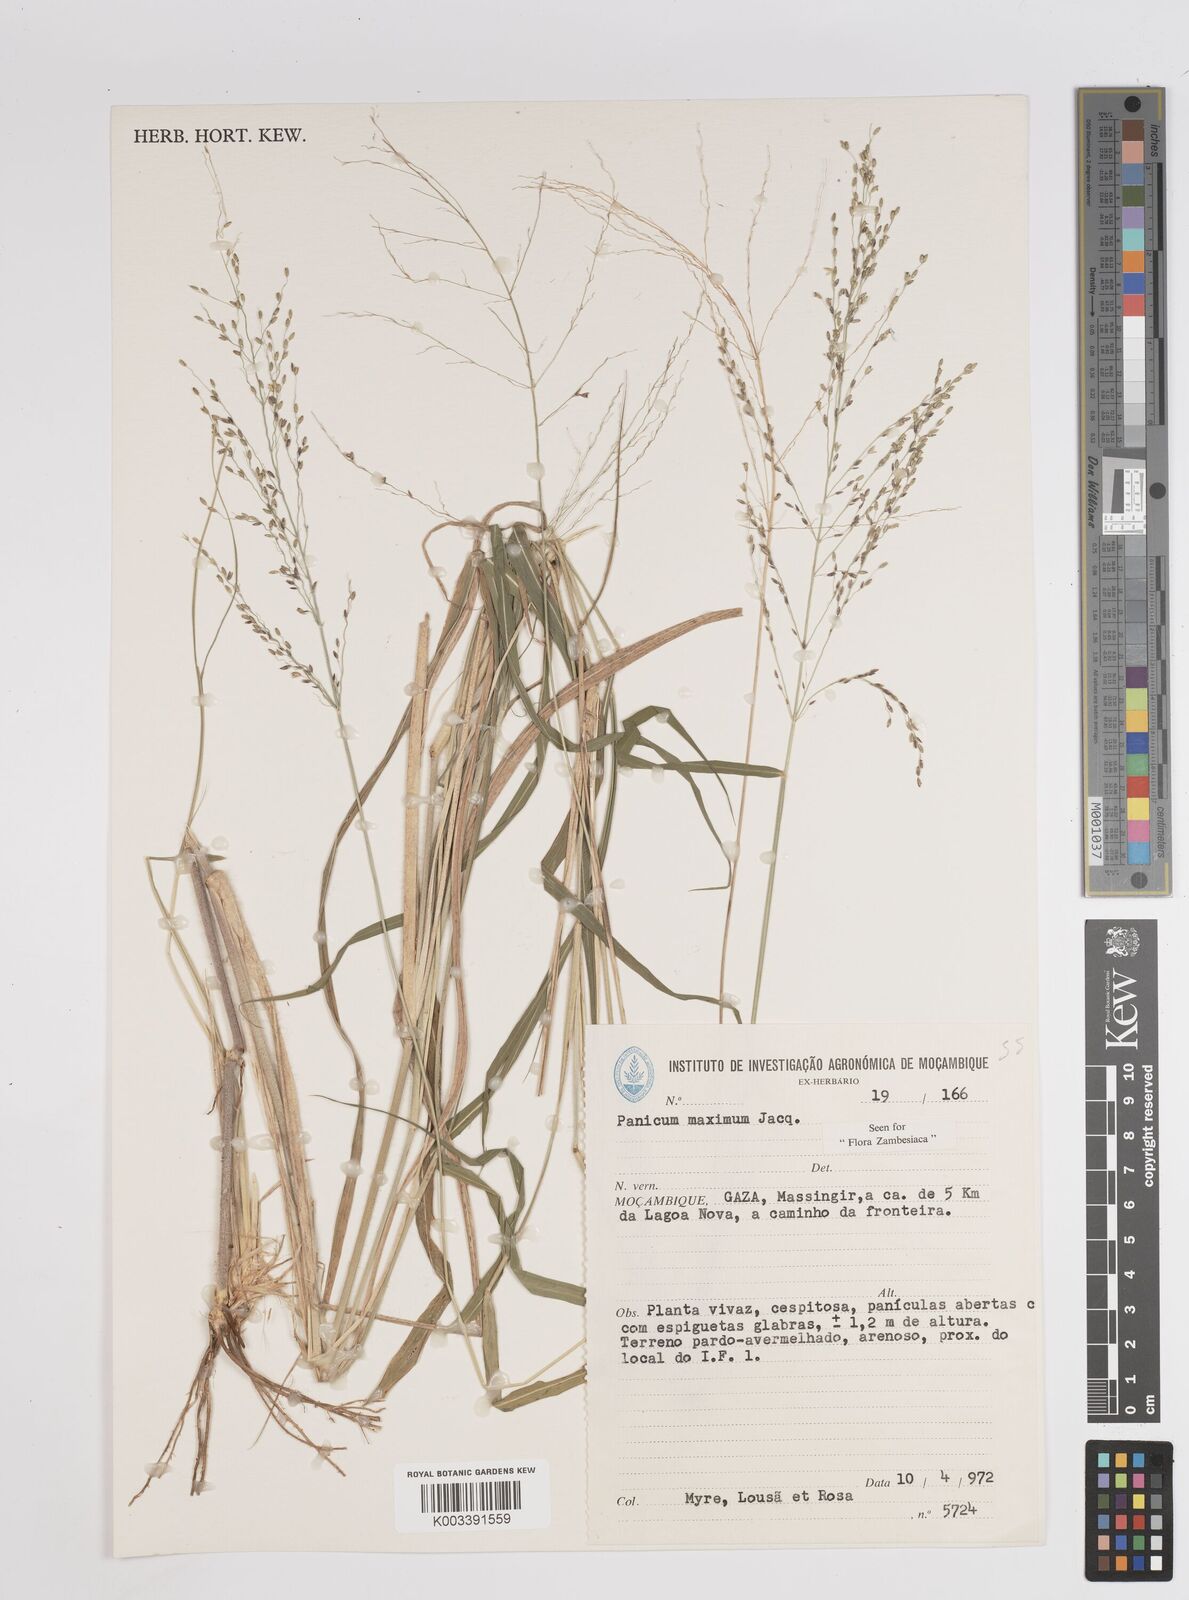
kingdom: Plantae
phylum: Tracheophyta
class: Liliopsida
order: Poales
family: Poaceae
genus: Megathyrsus
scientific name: Megathyrsus maximus
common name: Guineagrass
